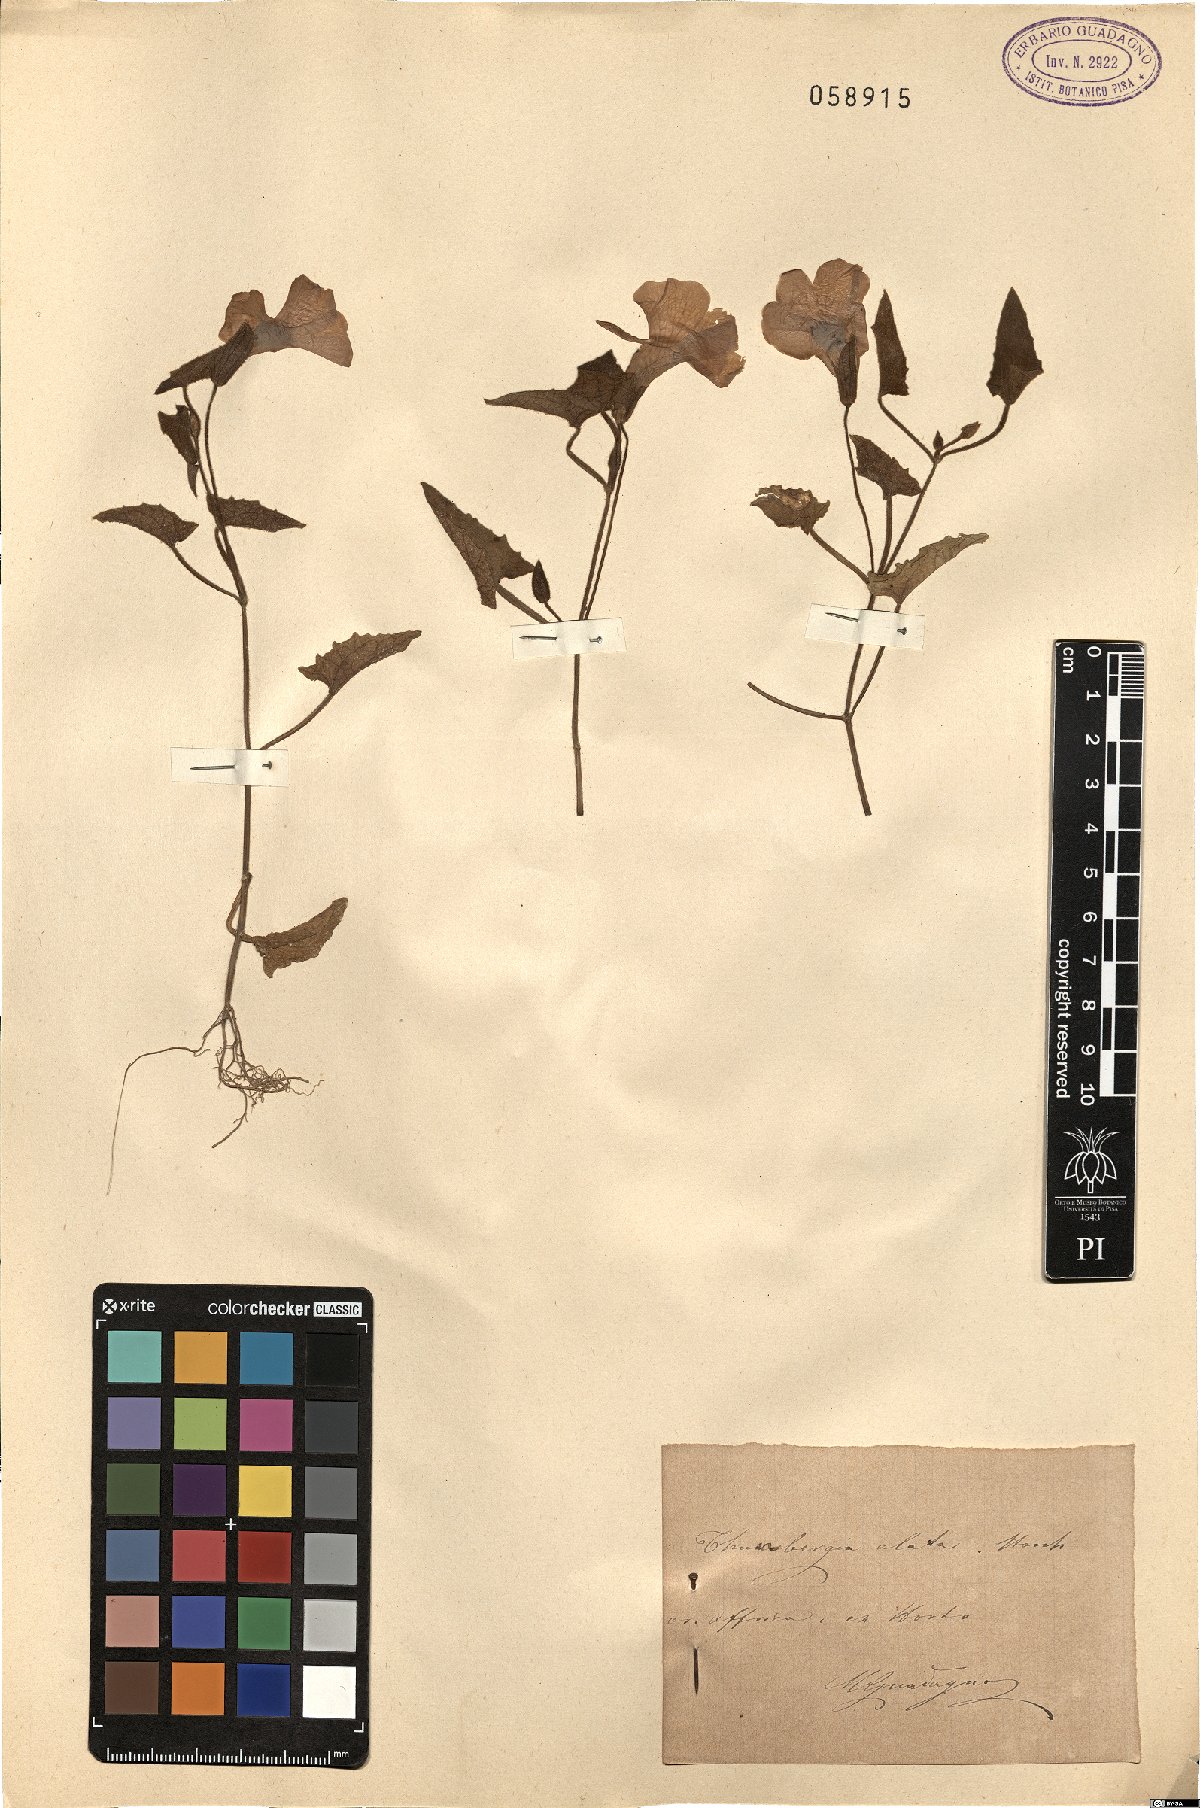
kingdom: Plantae
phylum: Tracheophyta
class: Magnoliopsida
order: Lamiales
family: Acanthaceae
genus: Thunbergia
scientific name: Thunbergia alata
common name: Blackeyed susan vine
